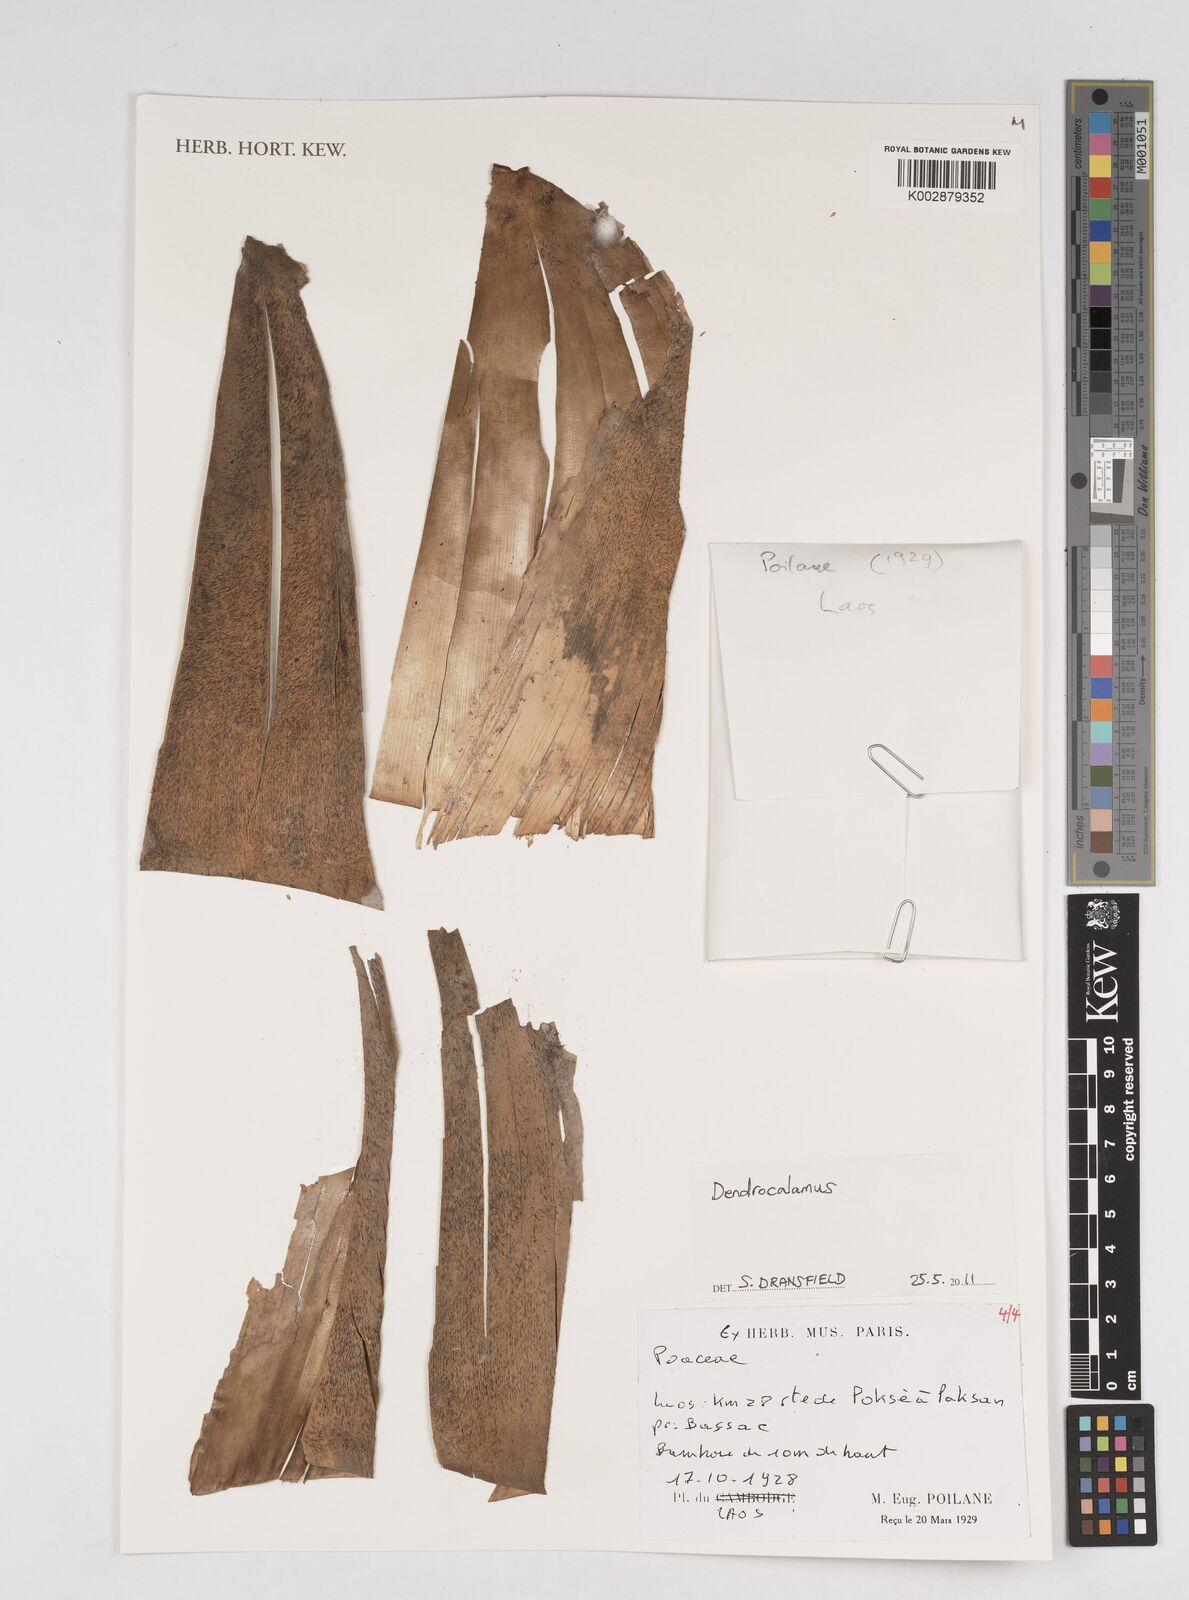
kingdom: Plantae
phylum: Tracheophyta
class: Liliopsida
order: Poales
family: Poaceae
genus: Dendrocalamus
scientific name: Dendrocalamus
